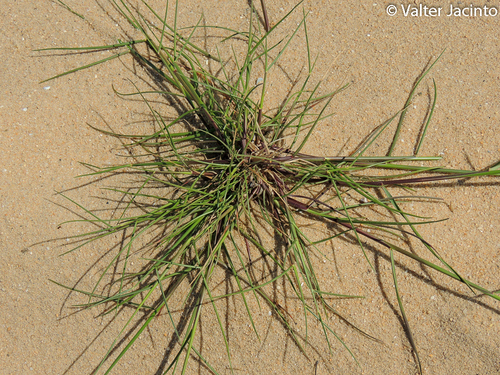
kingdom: Plantae
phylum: Tracheophyta
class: Liliopsida
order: Poales
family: Poaceae
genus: Cutandia
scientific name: Cutandia maritima
